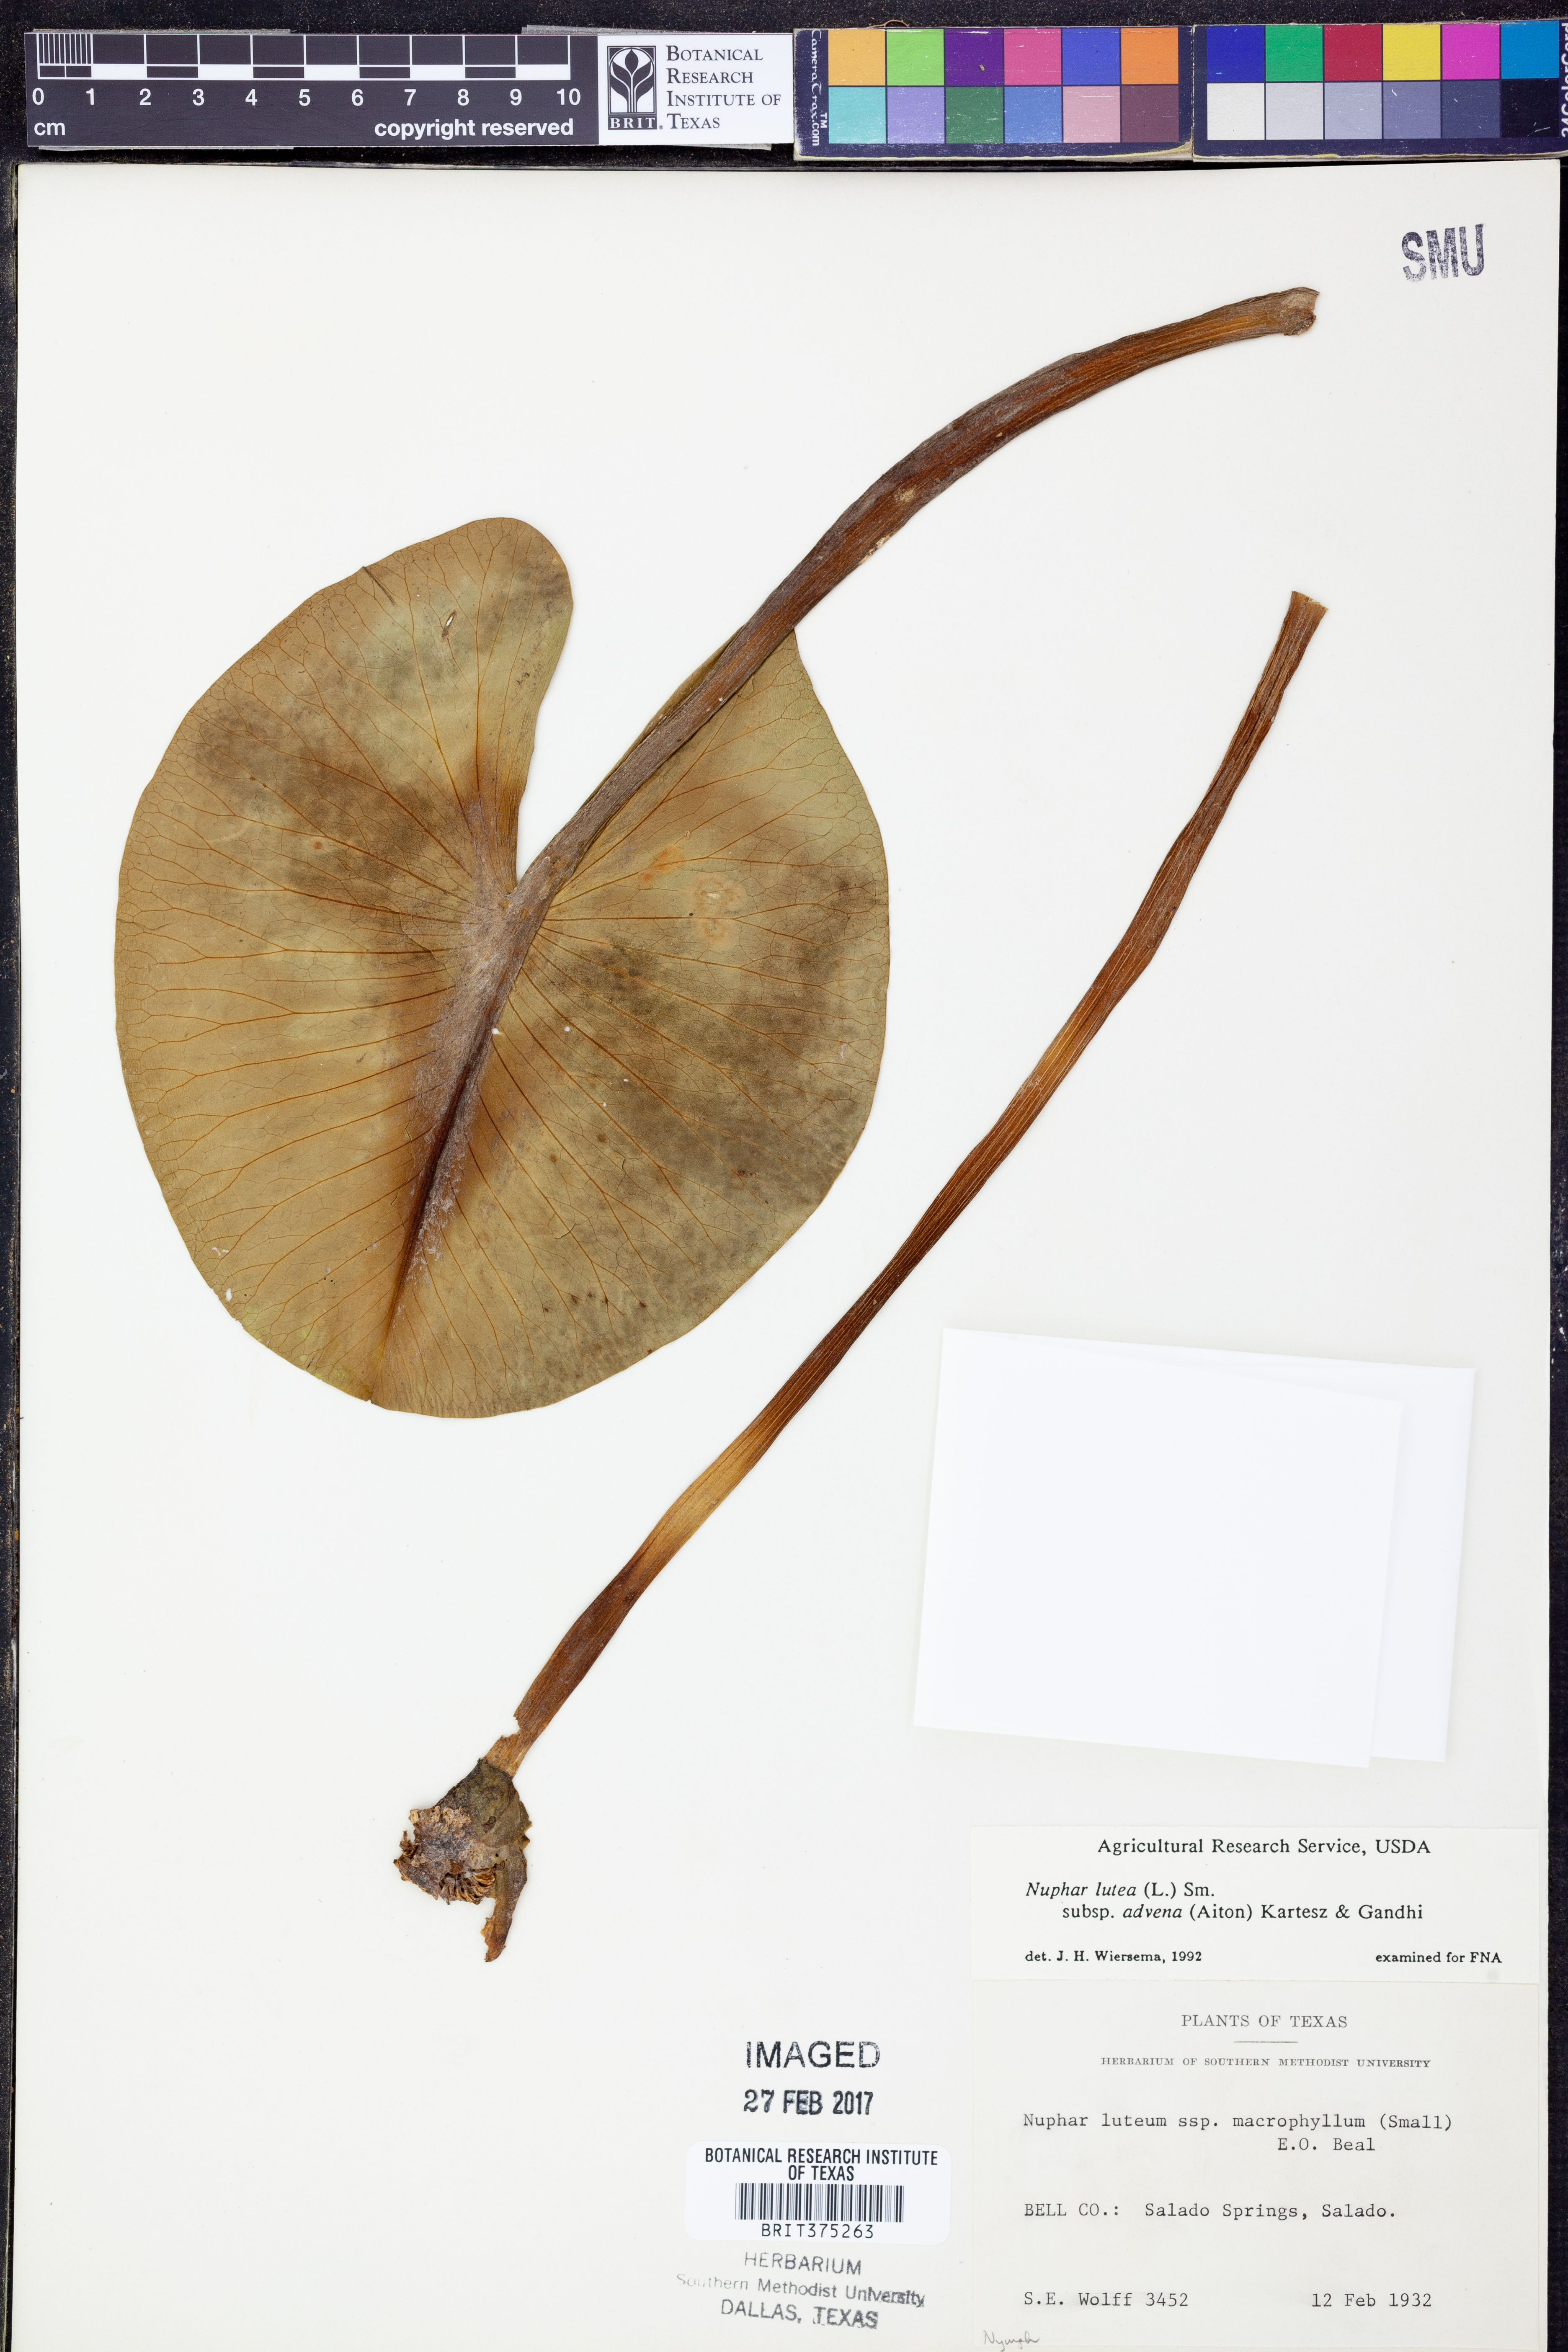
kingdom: Plantae
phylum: Tracheophyta
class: Magnoliopsida
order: Nymphaeales
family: Nymphaeaceae
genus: Nuphar
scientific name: Nuphar advena
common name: Spatter-dock
